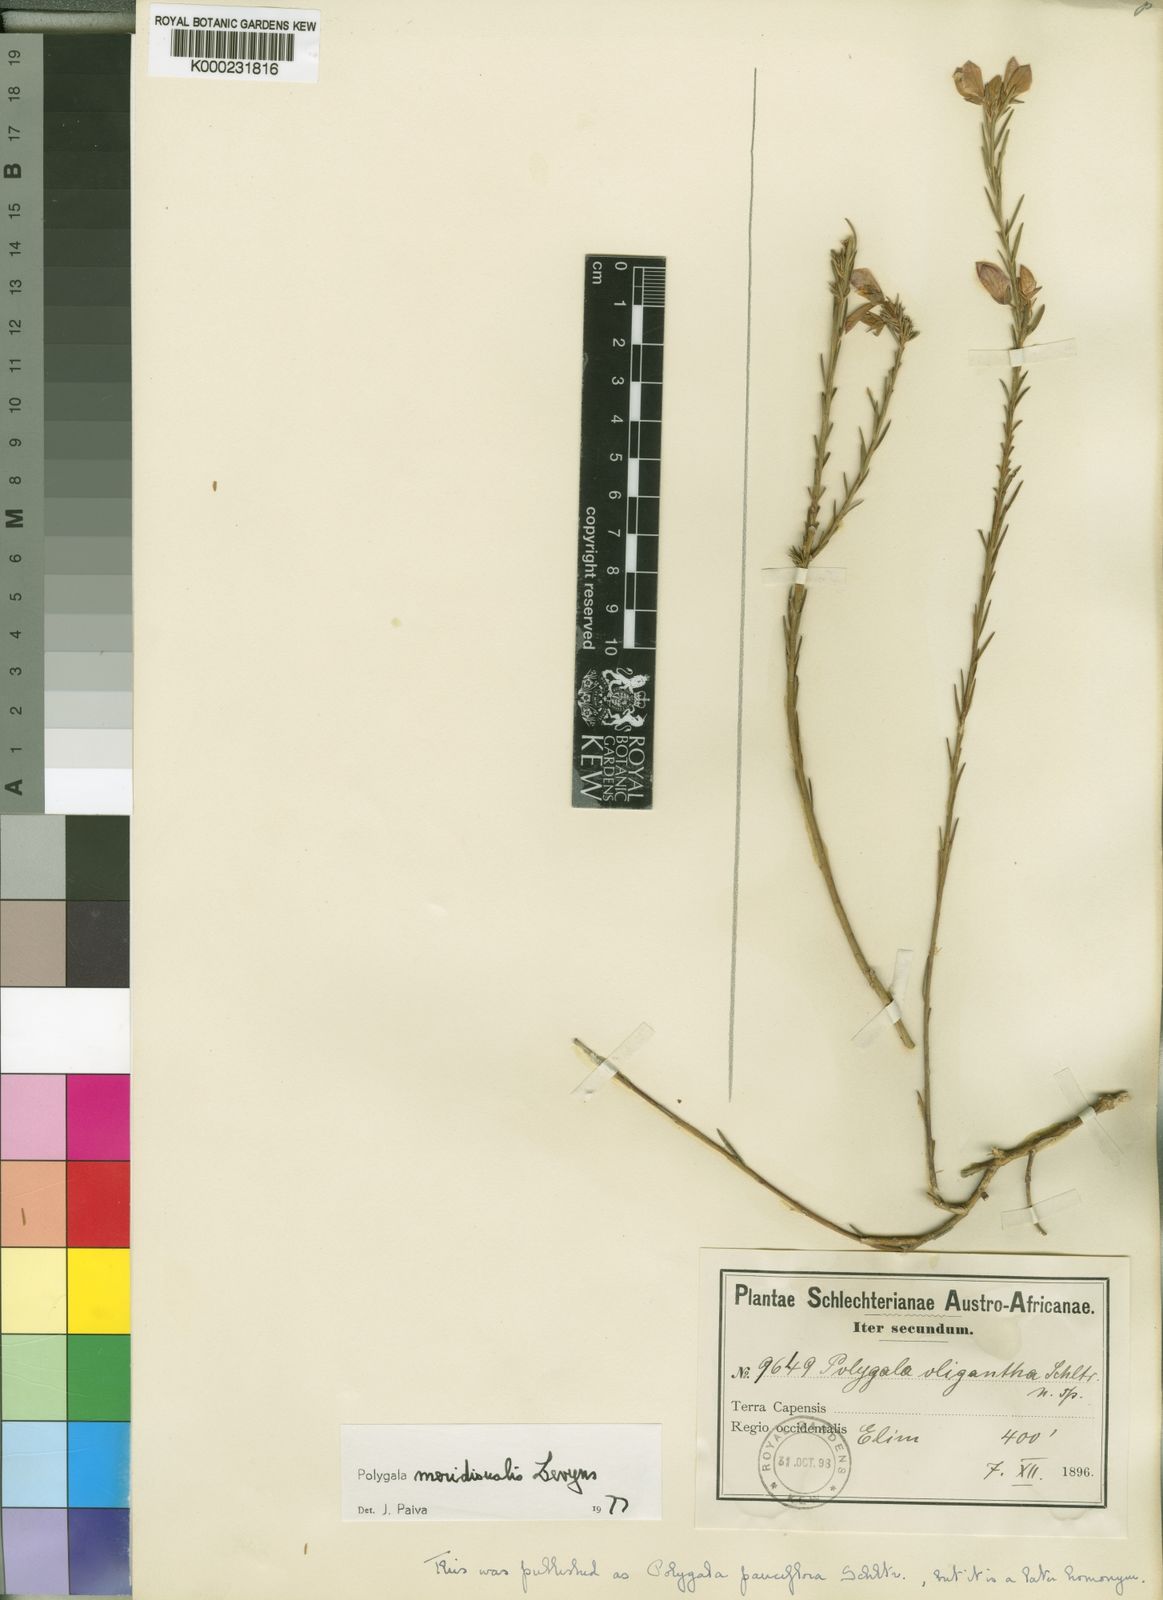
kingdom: Plantae
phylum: Tracheophyta
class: Magnoliopsida
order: Fabales
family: Polygalaceae
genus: Polygala
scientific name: Polygala
